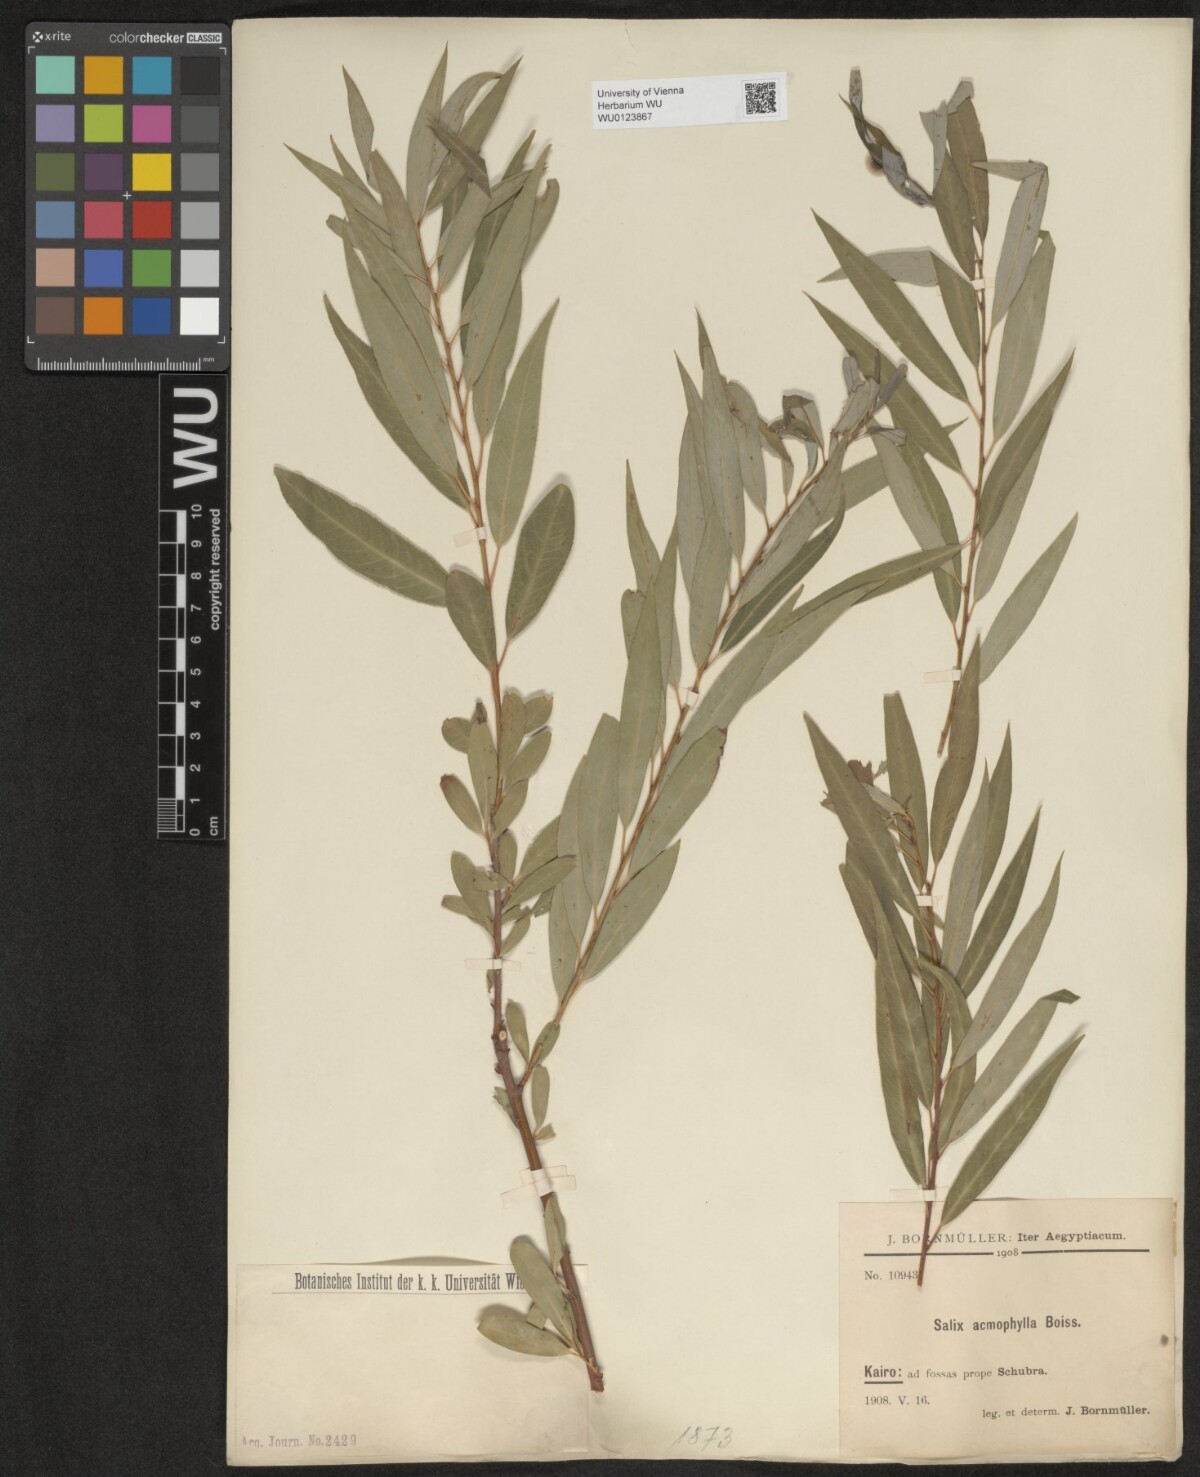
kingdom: Plantae
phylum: Tracheophyta
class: Magnoliopsida
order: Malpighiales
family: Salicaceae
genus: Salix
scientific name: Salix acmophylla
